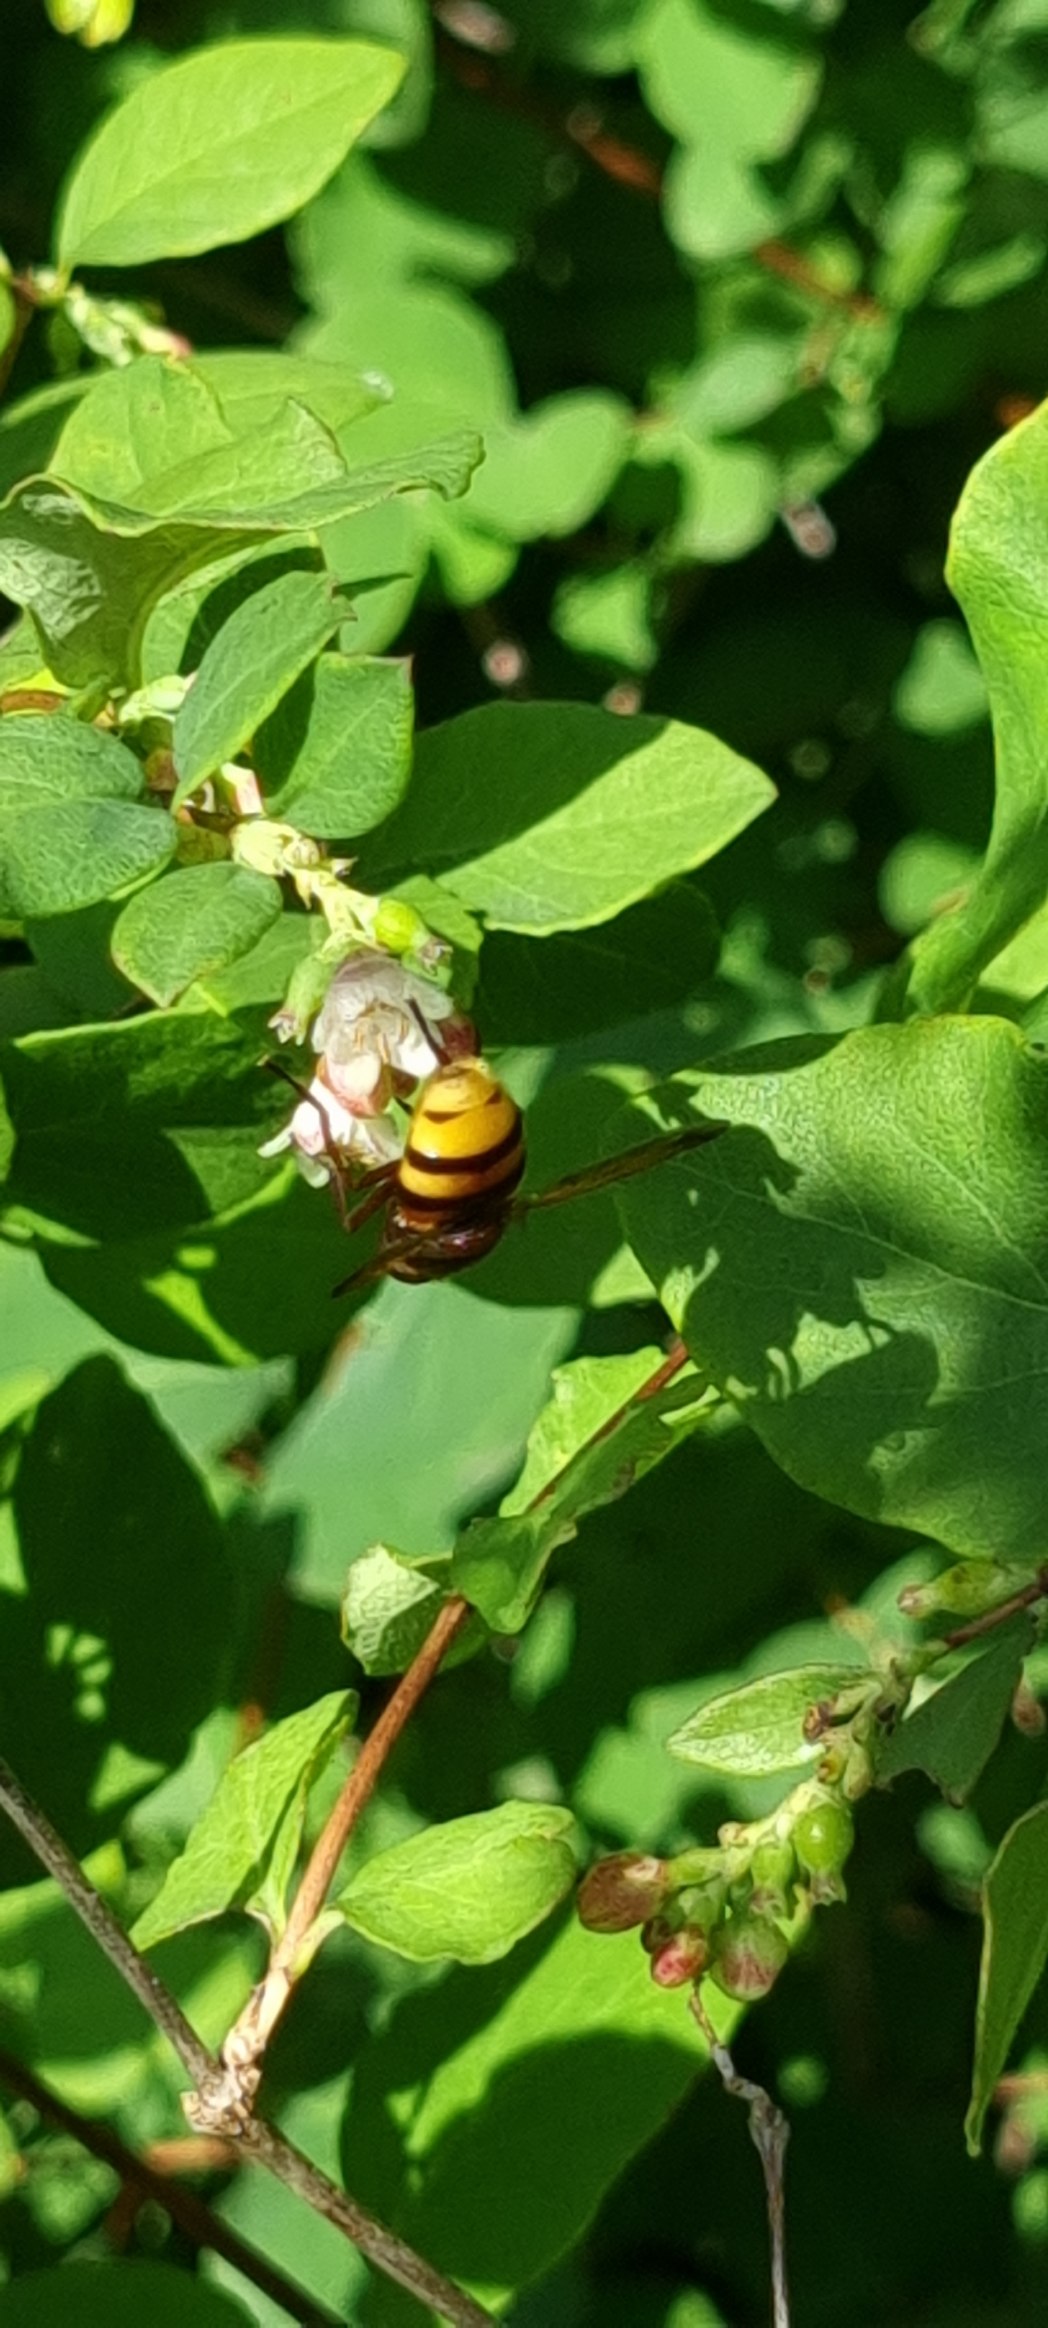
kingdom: Animalia
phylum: Arthropoda
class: Insecta
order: Diptera
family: Syrphidae
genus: Volucella
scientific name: Volucella zonaria
